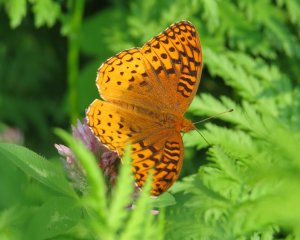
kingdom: Animalia
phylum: Arthropoda
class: Insecta
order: Lepidoptera
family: Nymphalidae
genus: Speyeria
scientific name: Speyeria cybele
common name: Great Spangled Fritillary
